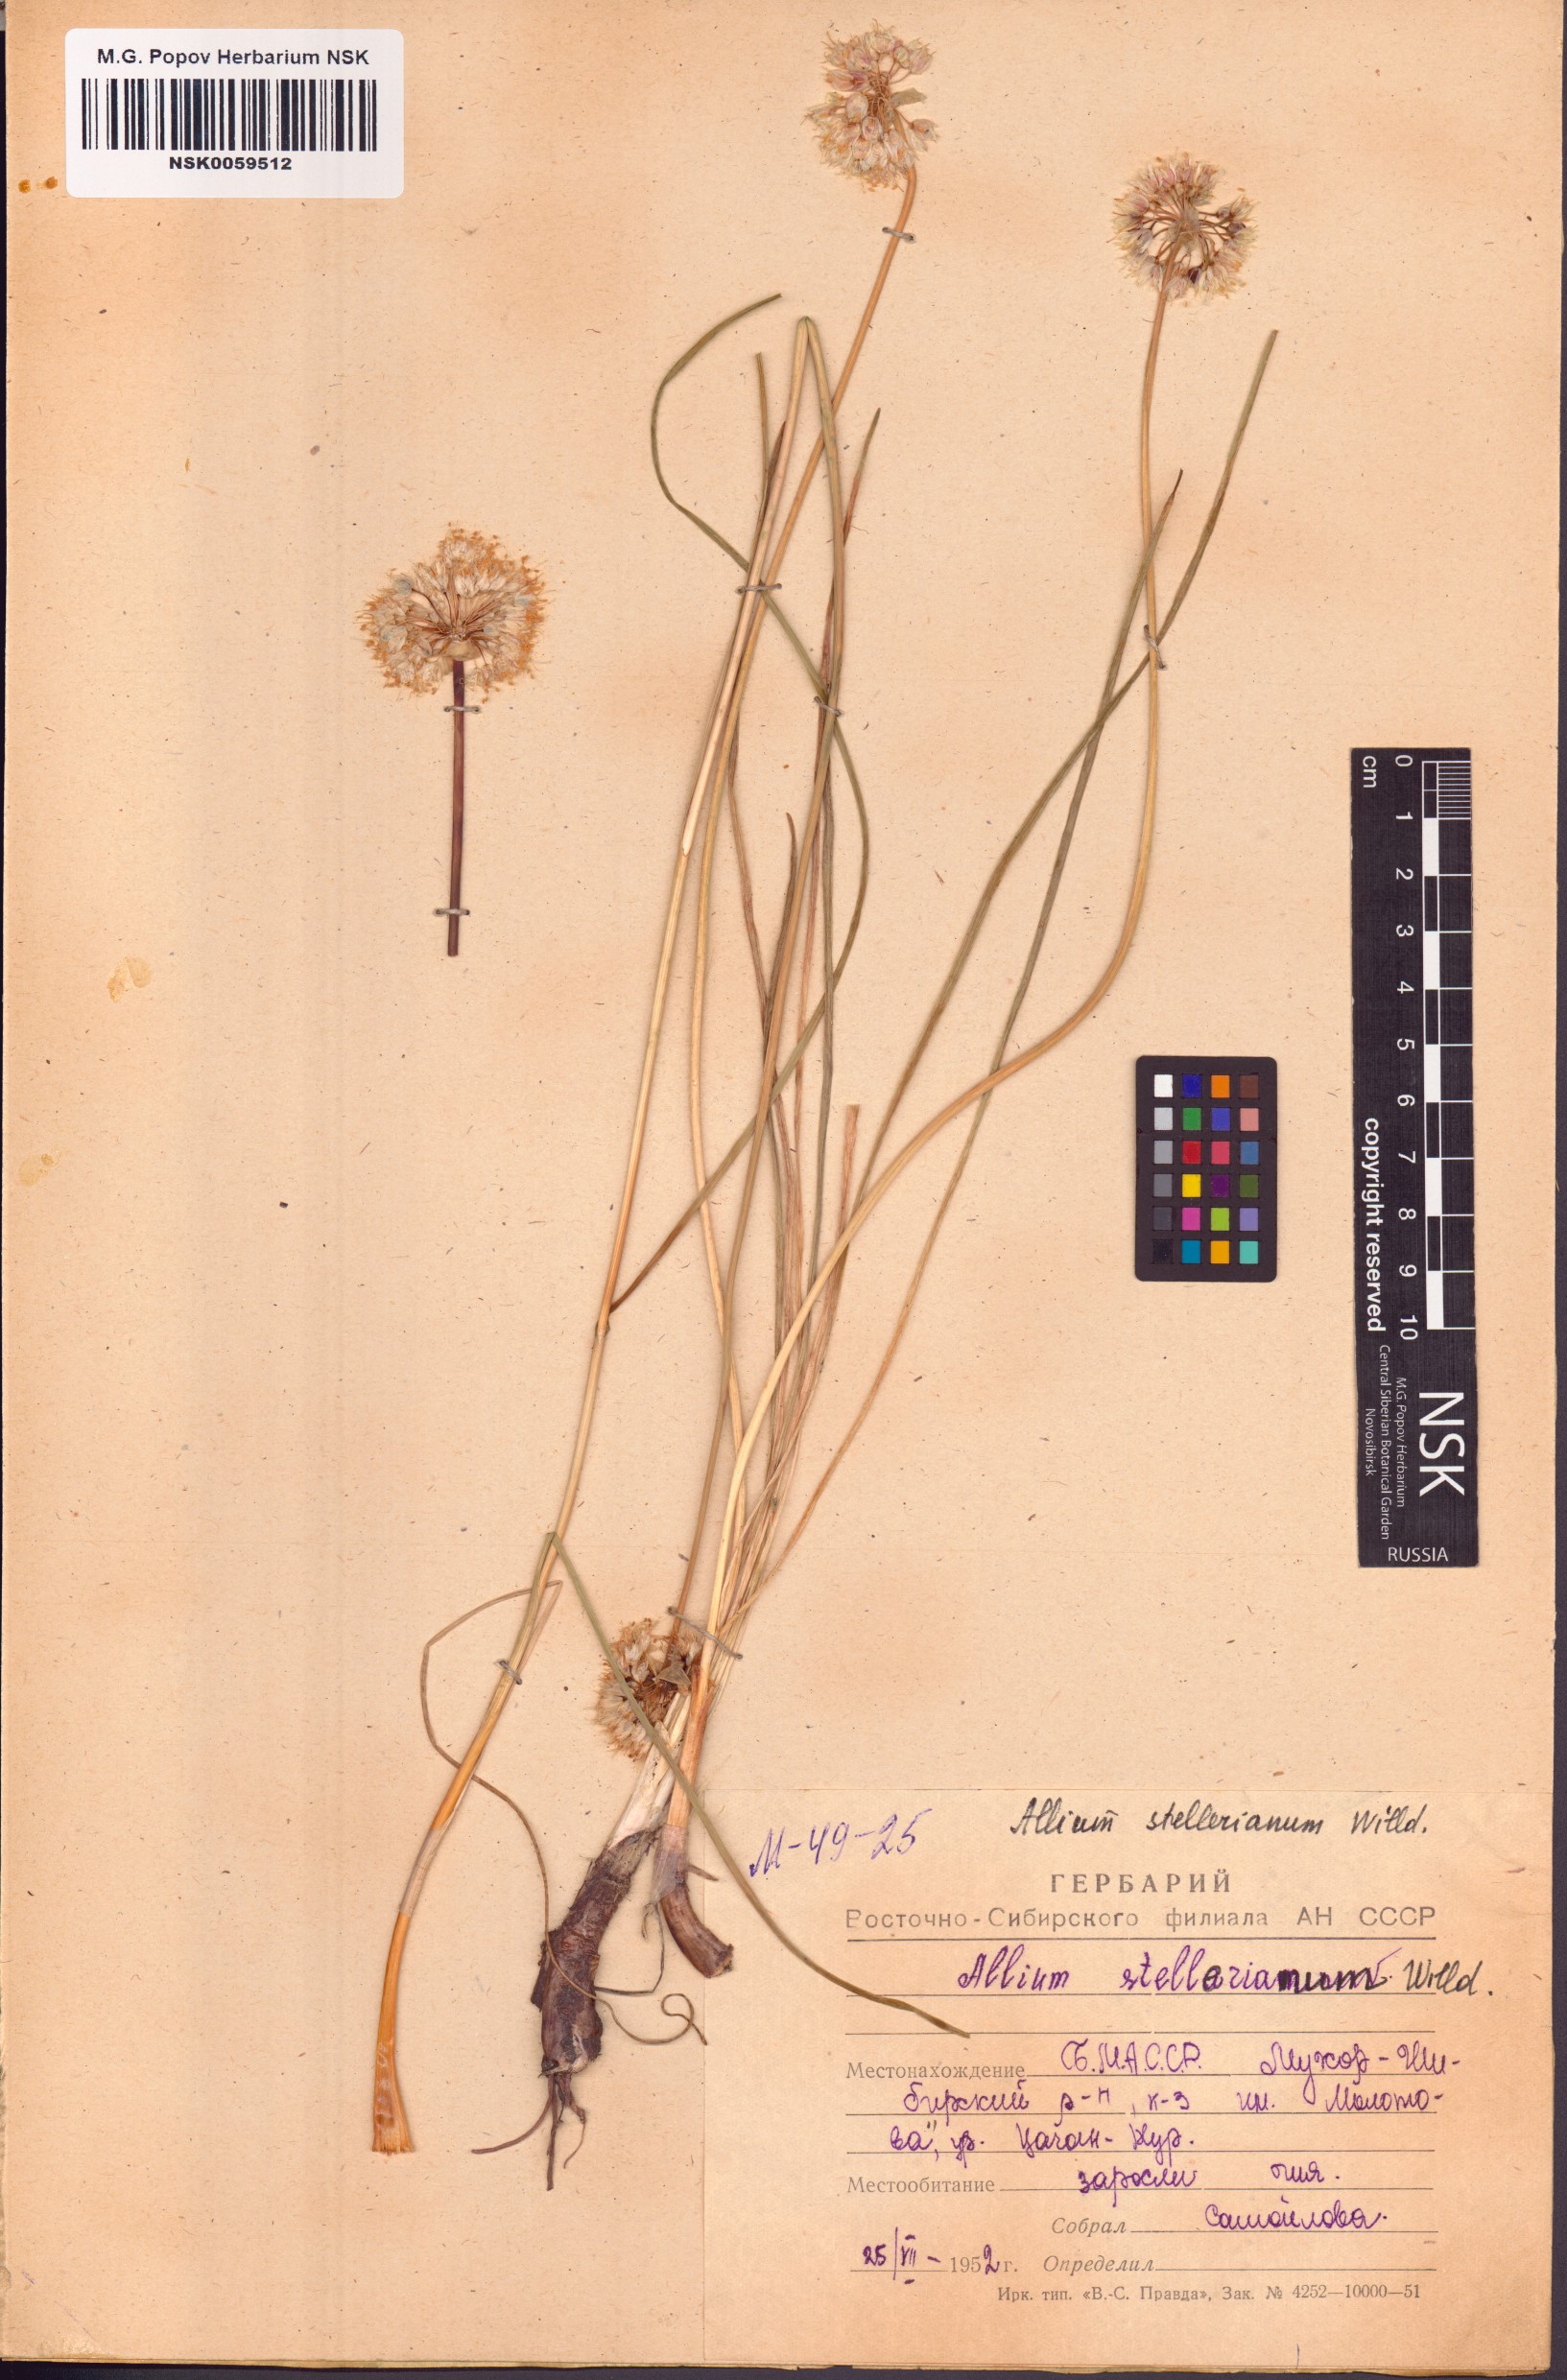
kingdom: Plantae
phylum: Tracheophyta
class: Liliopsida
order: Asparagales
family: Amaryllidaceae
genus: Allium
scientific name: Allium stellerianum
